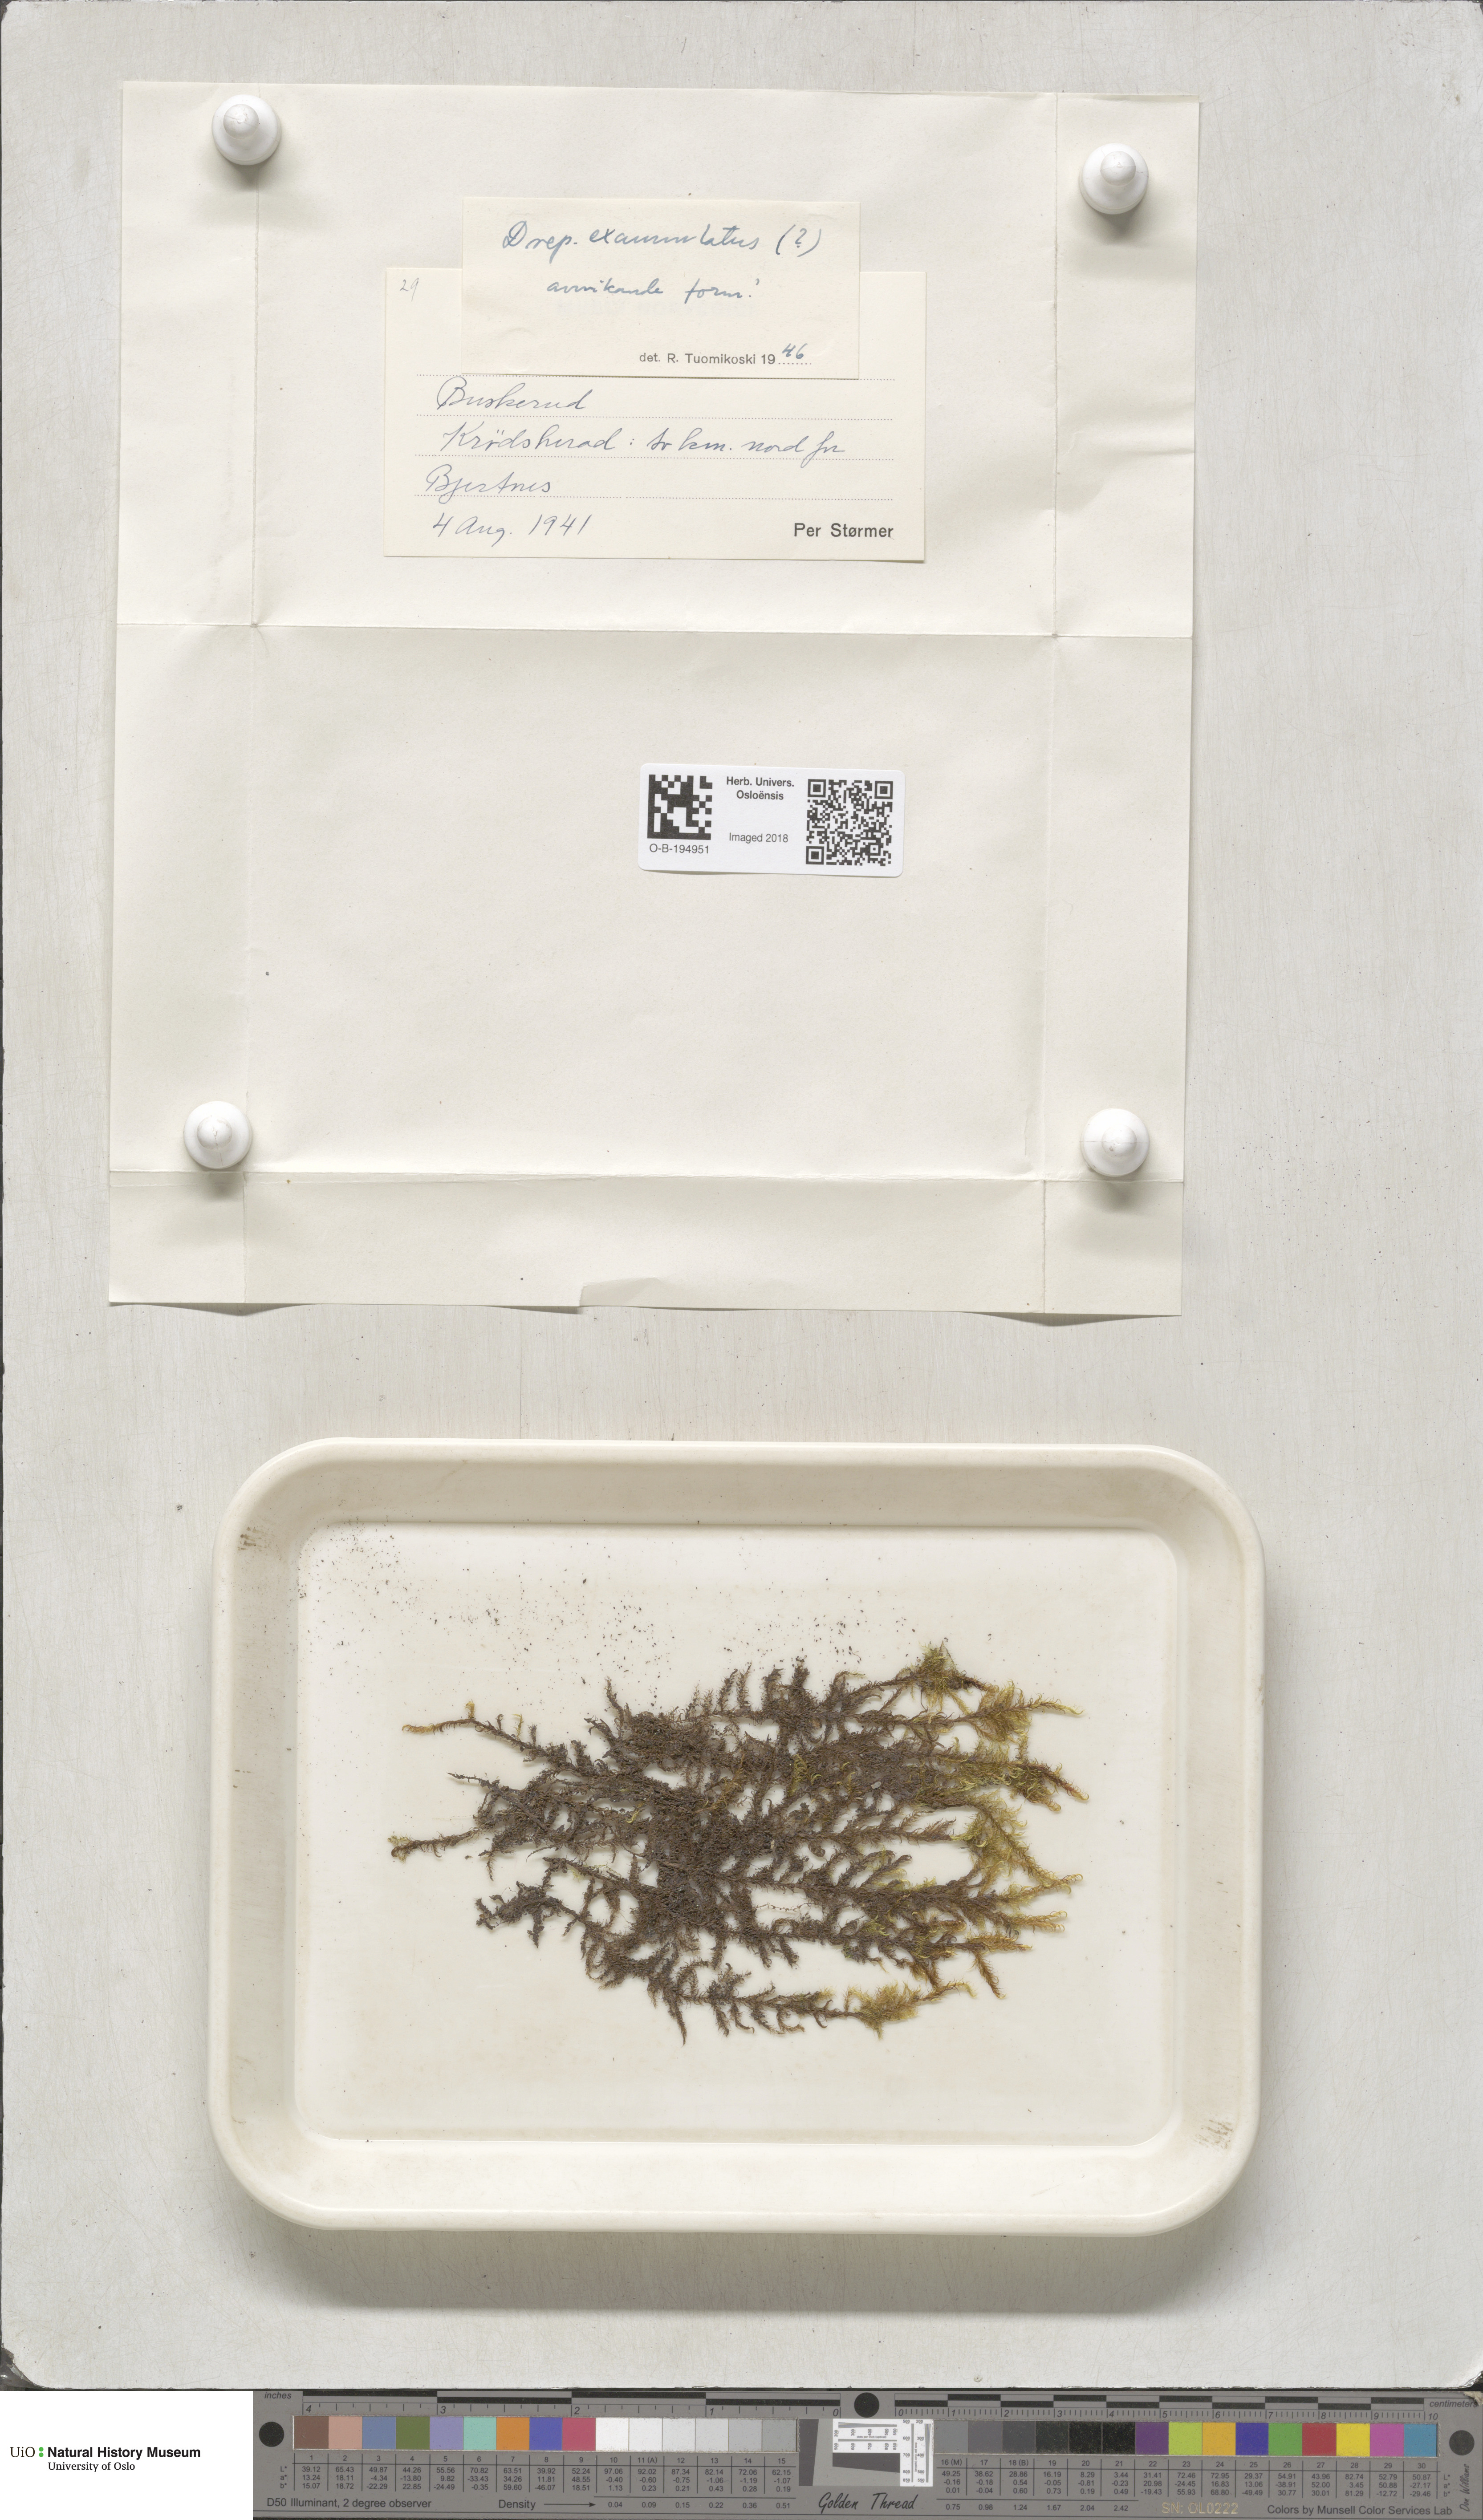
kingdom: Plantae
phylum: Bryophyta
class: Bryopsida
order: Hypnales
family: Calliergonaceae
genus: Sarmentypnum
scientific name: Sarmentypnum exannulatum
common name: Ringless spoon moss
